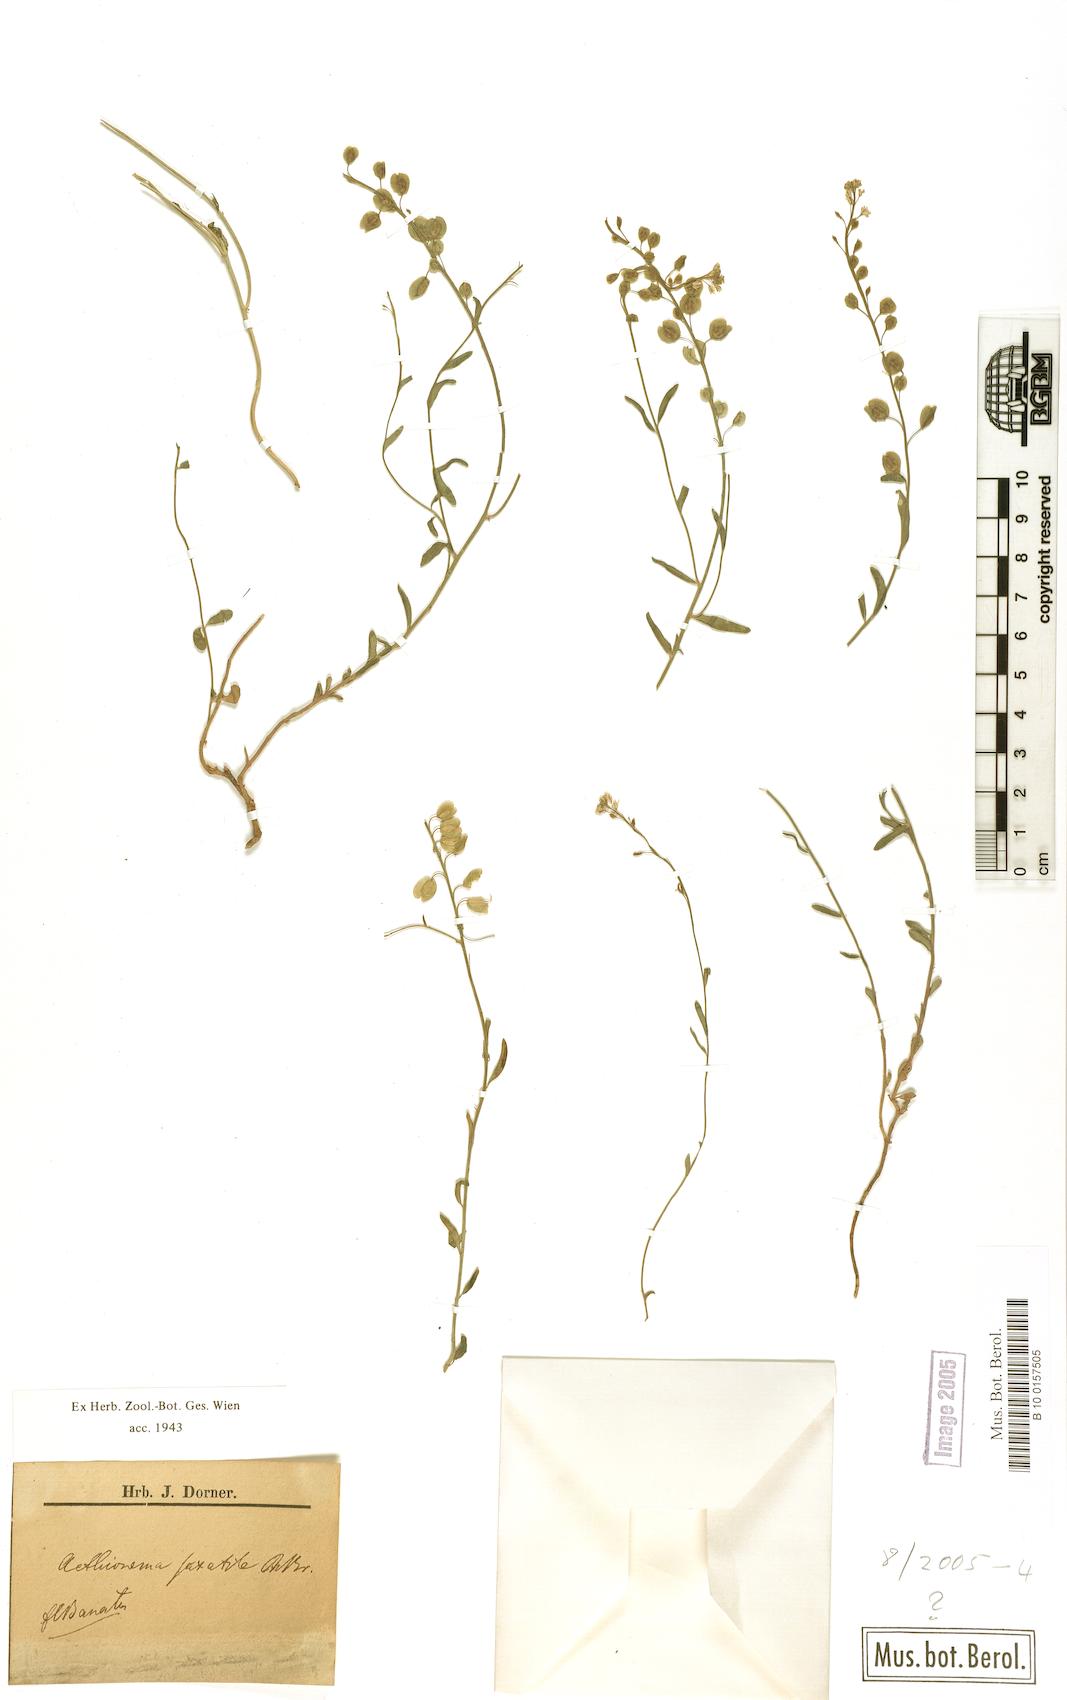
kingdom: Plantae
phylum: Tracheophyta
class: Magnoliopsida
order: Brassicales
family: Brassicaceae
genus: Aethionema
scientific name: Aethionema saxatile
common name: Burnt candytuft
